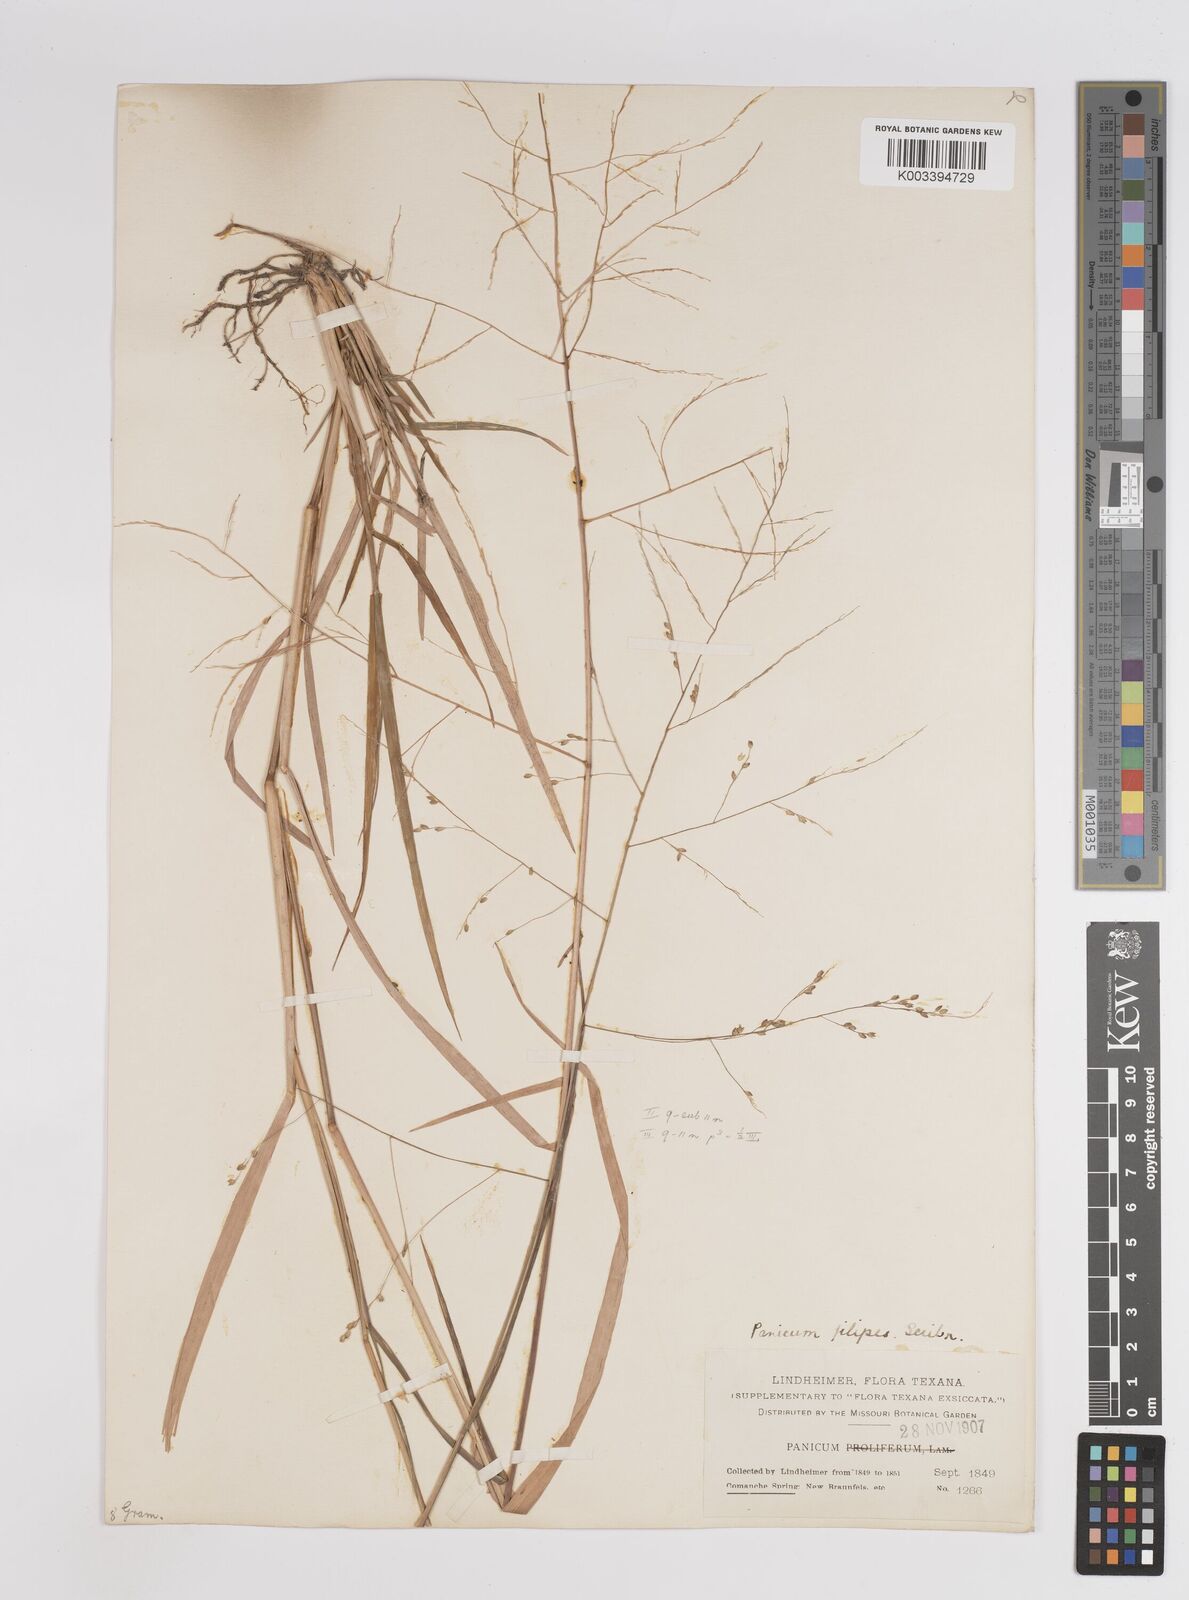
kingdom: Plantae
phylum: Tracheophyta
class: Liliopsida
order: Poales
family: Poaceae
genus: Panicum
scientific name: Panicum hallii
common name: Hall's witchgrass
